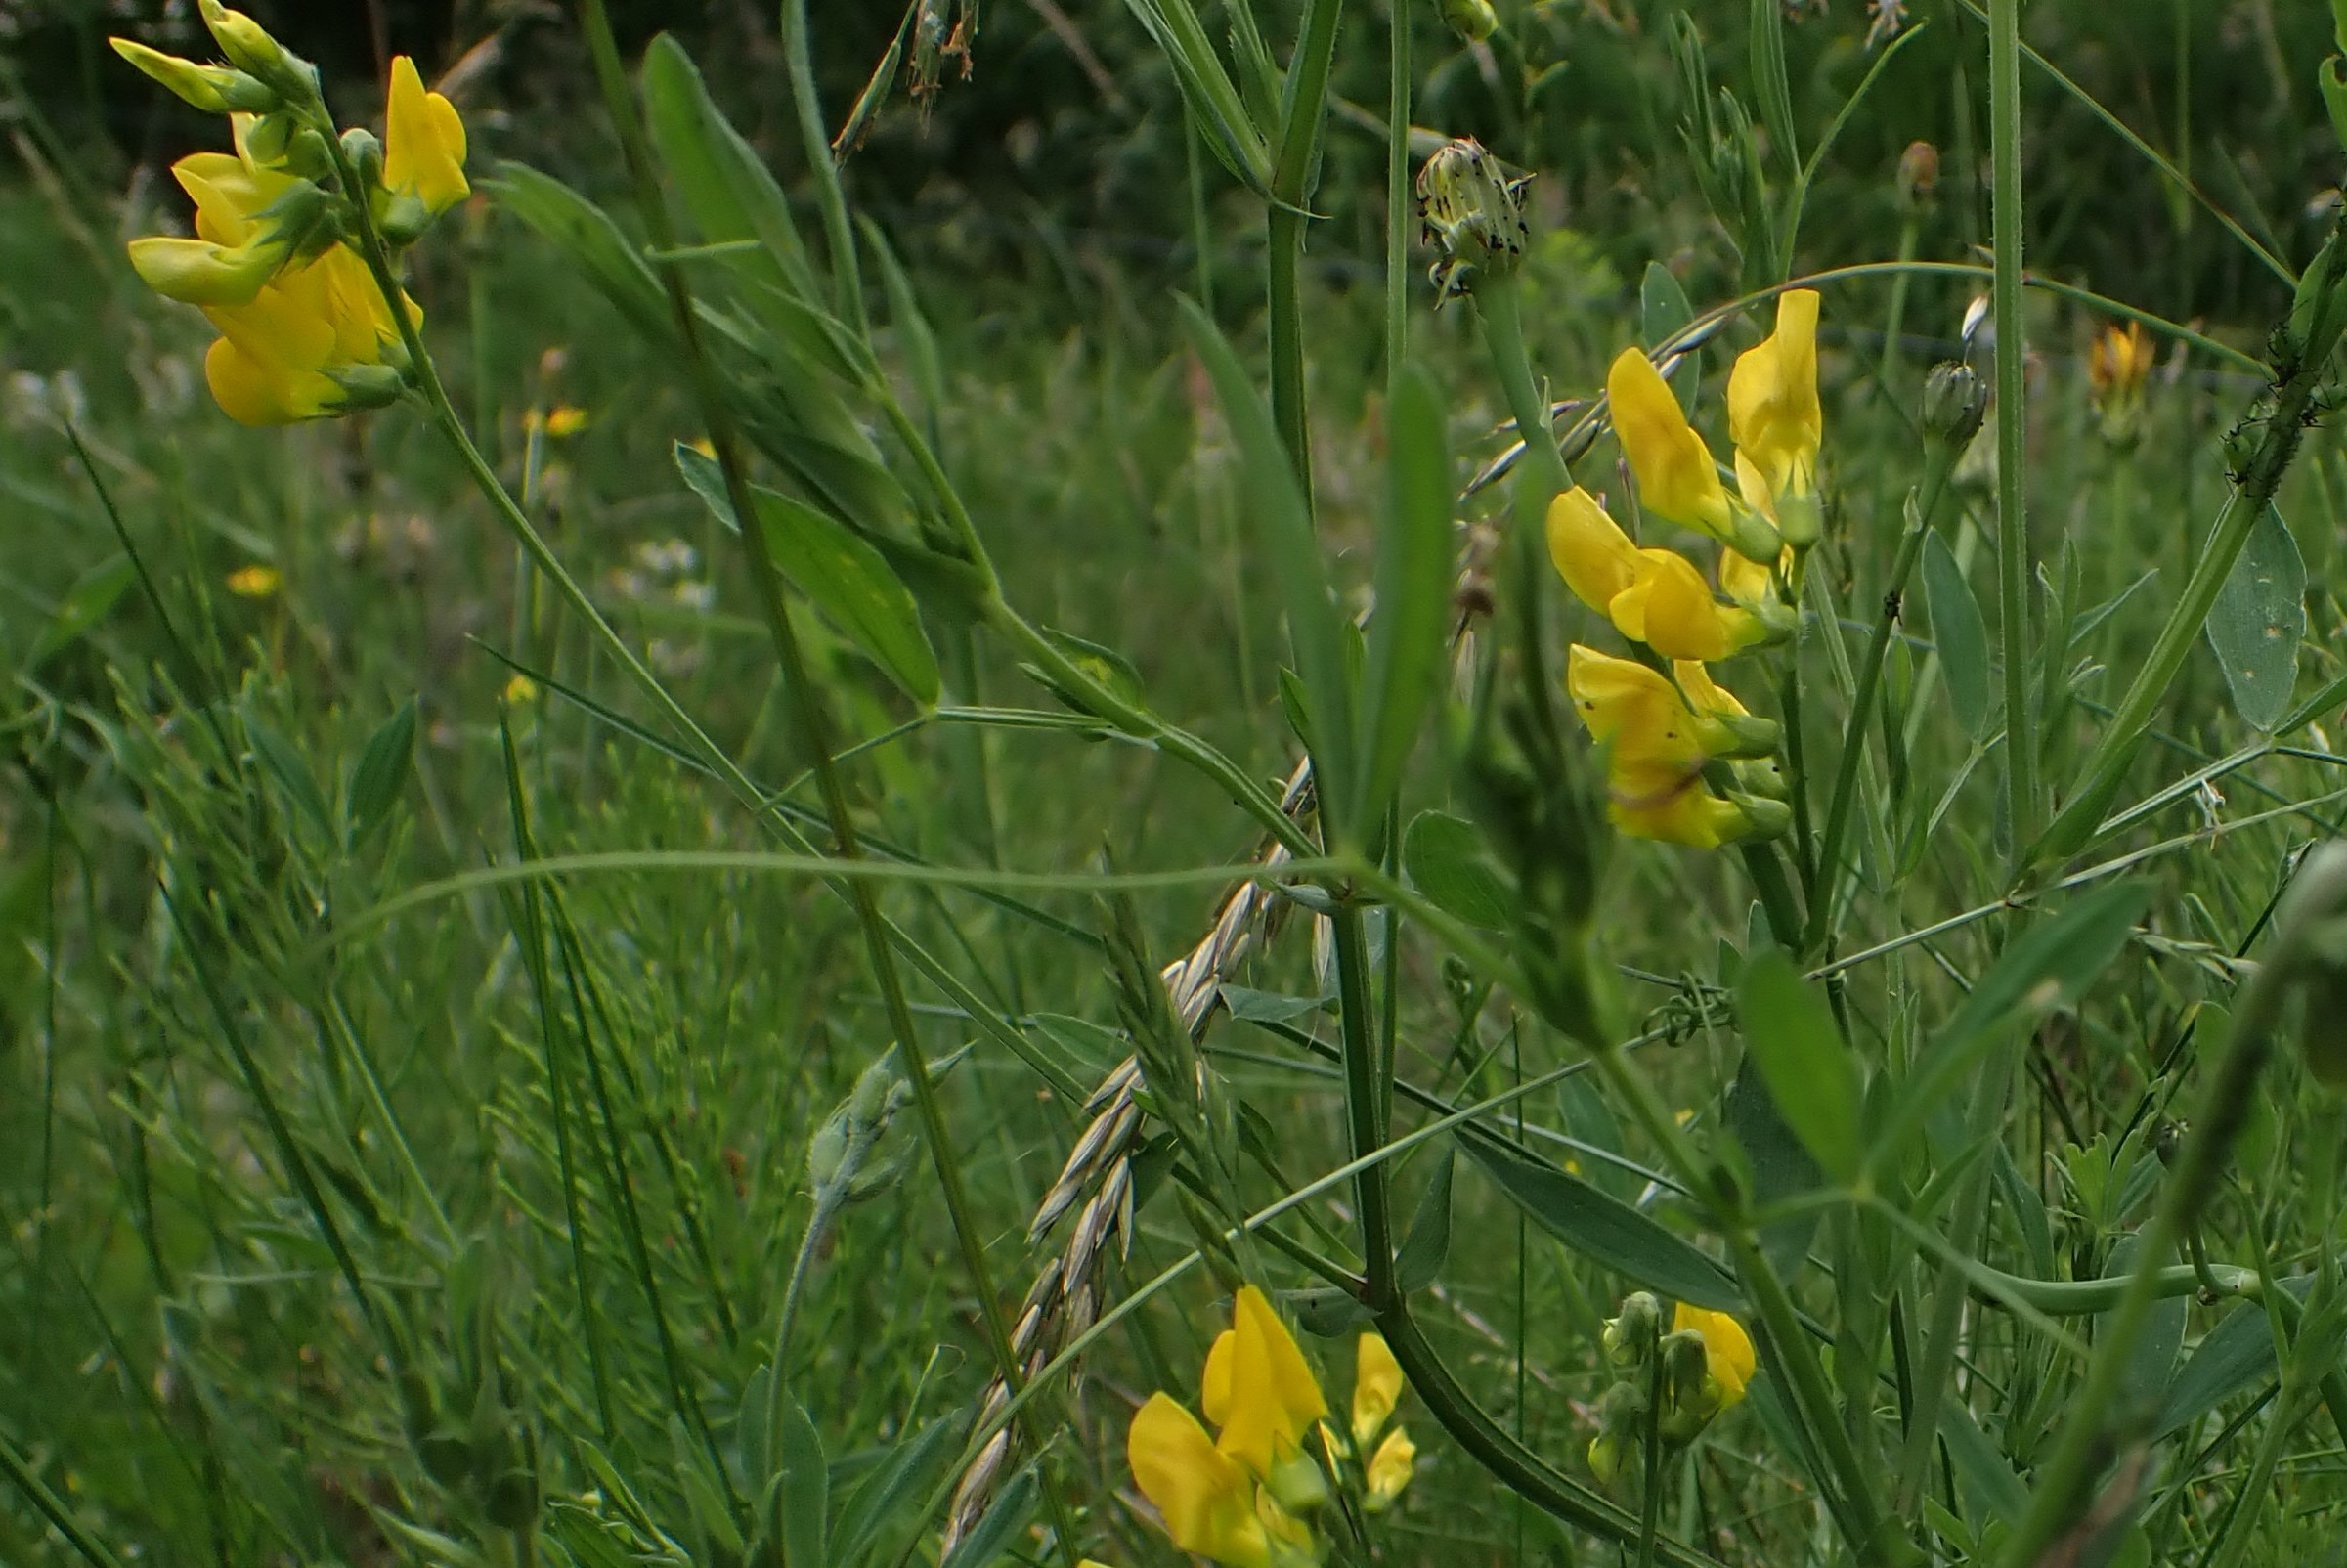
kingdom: Plantae
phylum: Tracheophyta
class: Magnoliopsida
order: Fabales
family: Fabaceae
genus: Lathyrus
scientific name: Lathyrus pratensis
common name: Gul fladbælg
